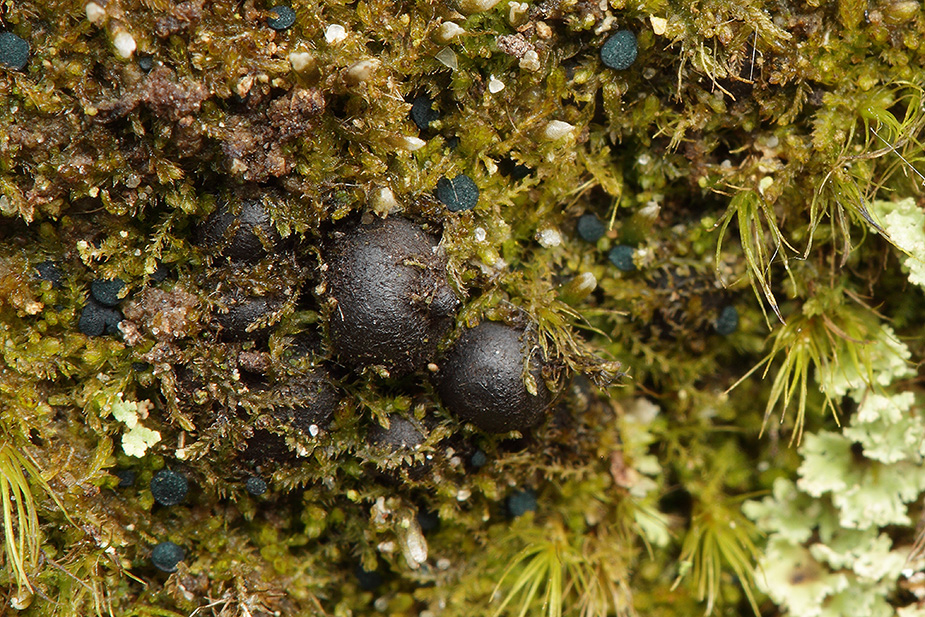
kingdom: Fungi
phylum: Ascomycota
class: Leotiomycetes
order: Leotiales
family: Mniaeciaceae
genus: Mniaecia
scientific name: Mniaecia jungermanniae
